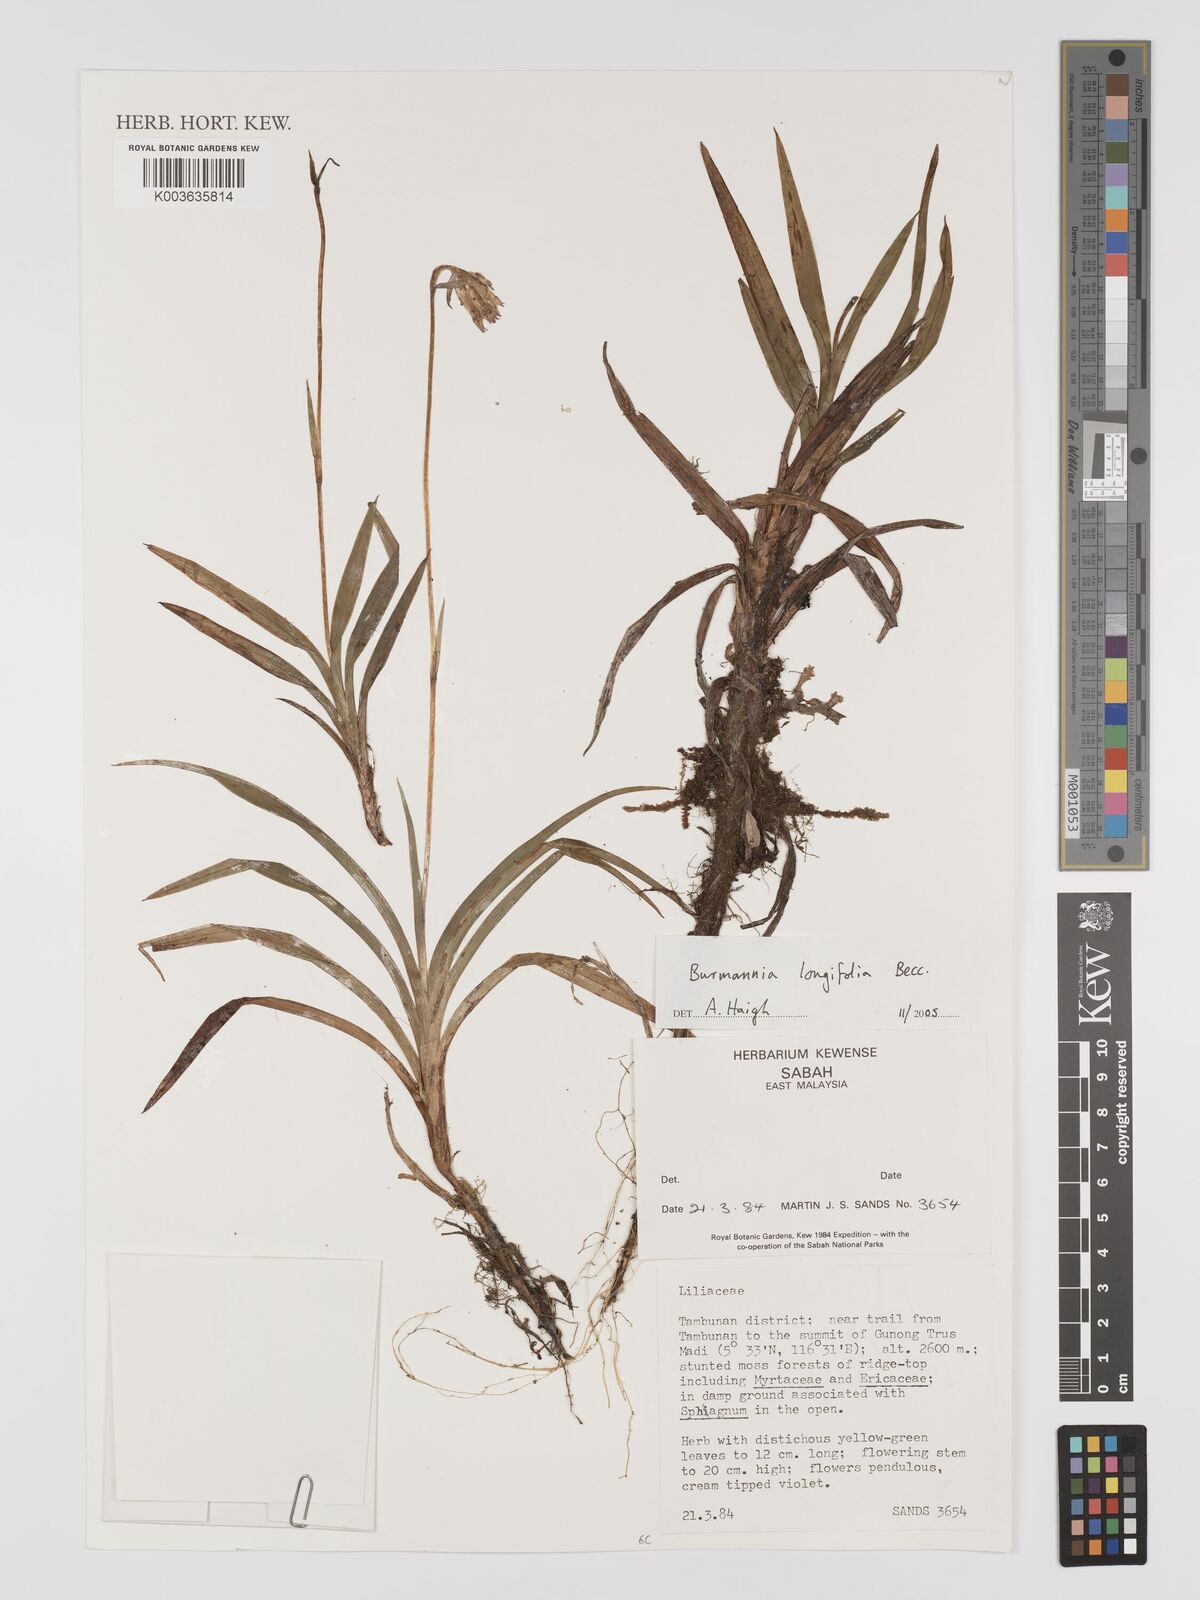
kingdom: Plantae
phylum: Tracheophyta
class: Liliopsida
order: Dioscoreales
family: Burmanniaceae
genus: Burmannia
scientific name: Burmannia longifolia
